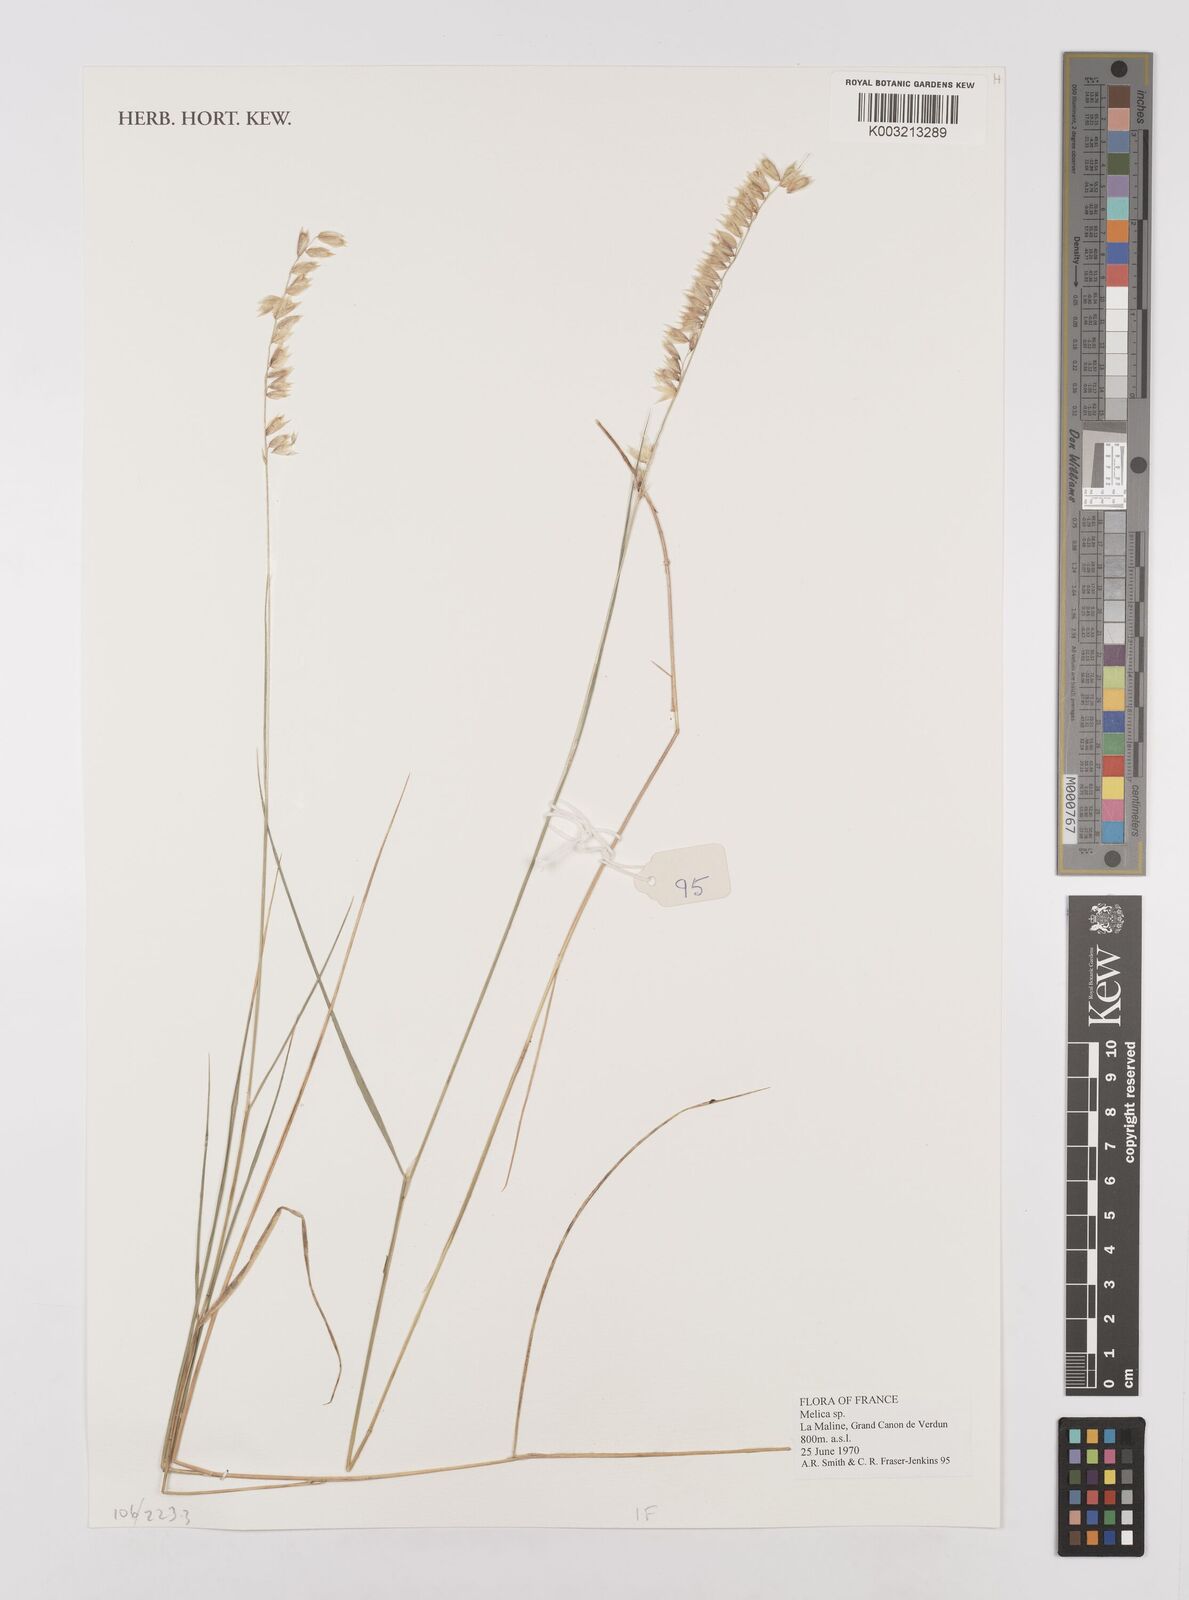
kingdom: Plantae
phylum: Tracheophyta
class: Liliopsida
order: Poales
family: Poaceae
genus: Melica
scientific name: Melica
